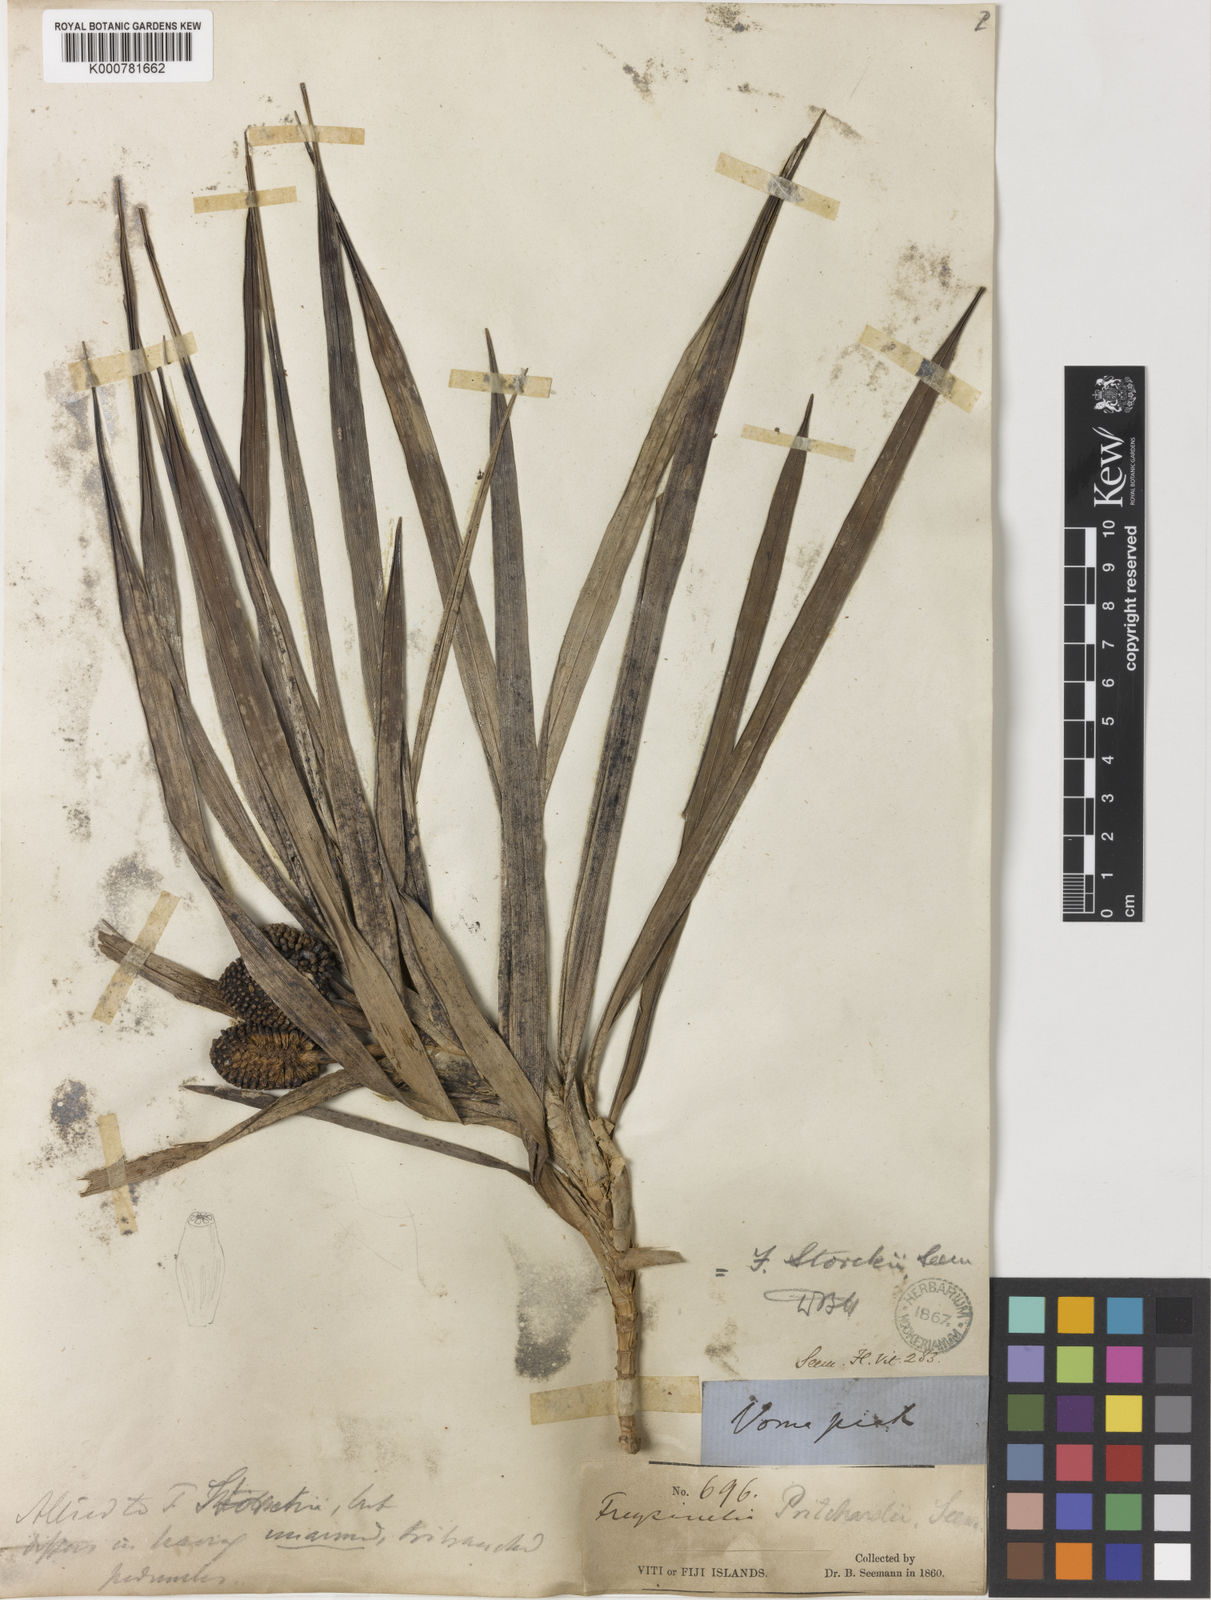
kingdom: Plantae
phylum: Tracheophyta
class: Liliopsida
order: Pandanales
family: Pandanaceae
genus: Freycinetia
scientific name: Freycinetia pritchardii
